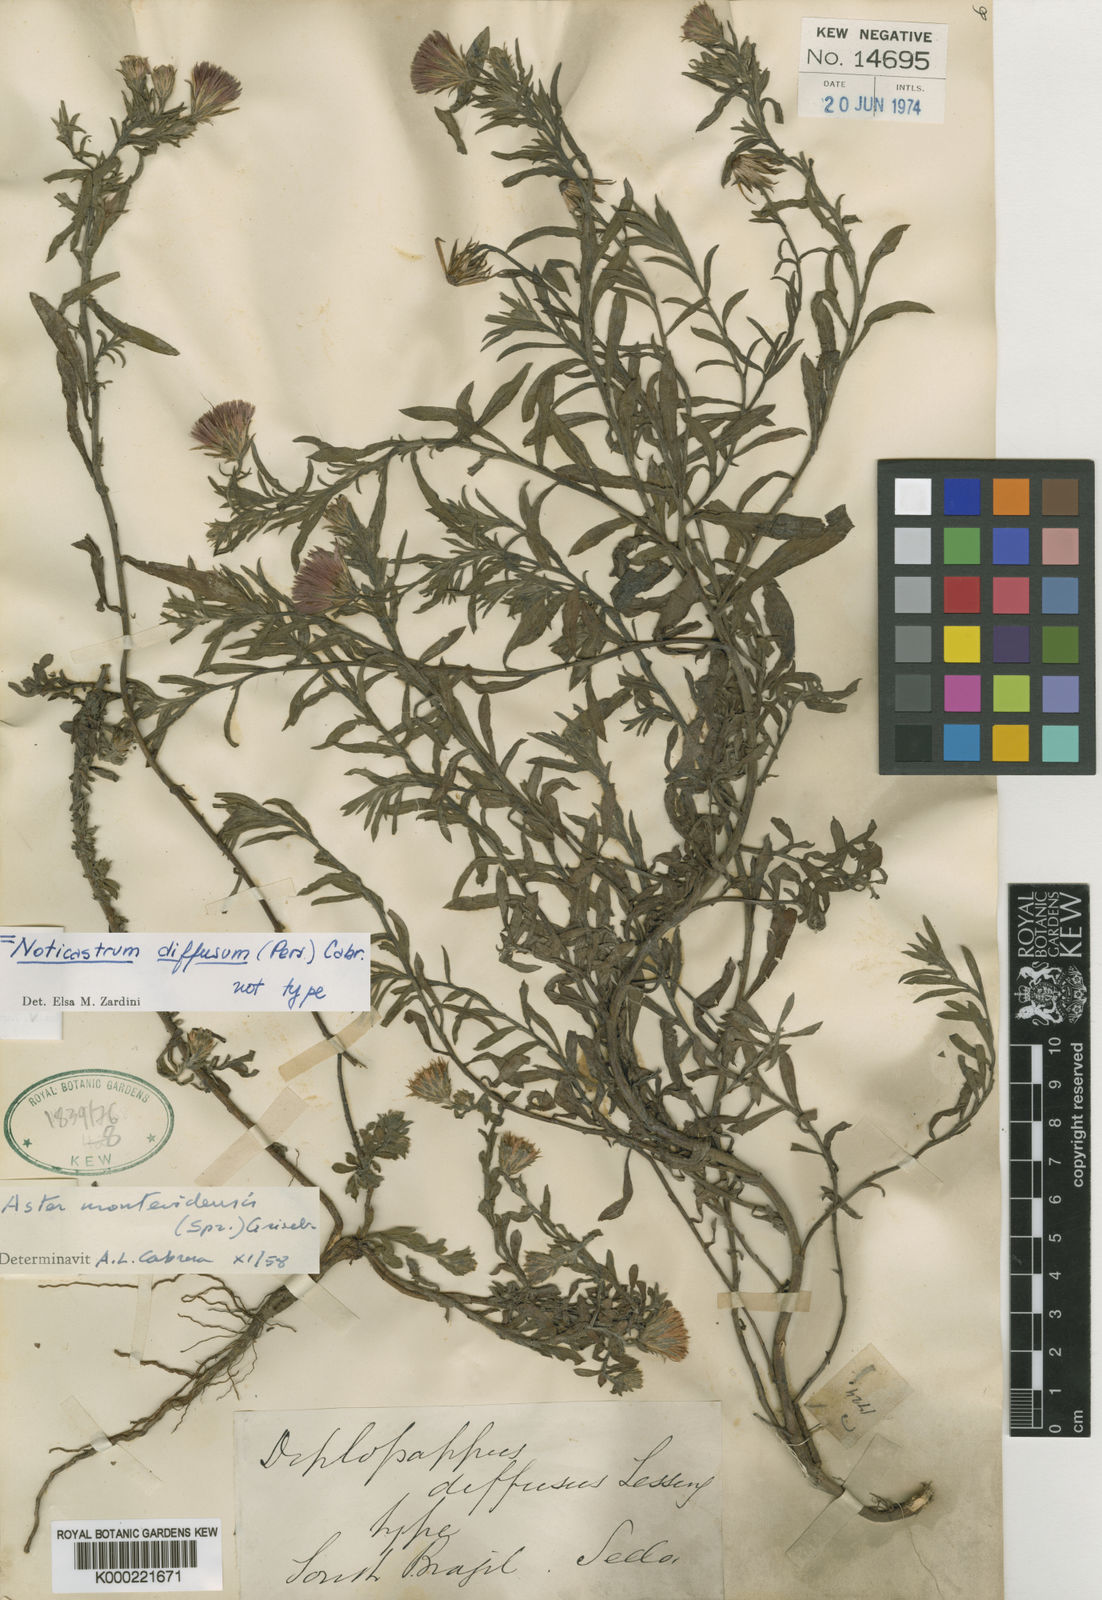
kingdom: Plantae
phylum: Tracheophyta
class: Magnoliopsida
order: Asterales
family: Asteraceae
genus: Noticastrum
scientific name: Noticastrum diffusum
